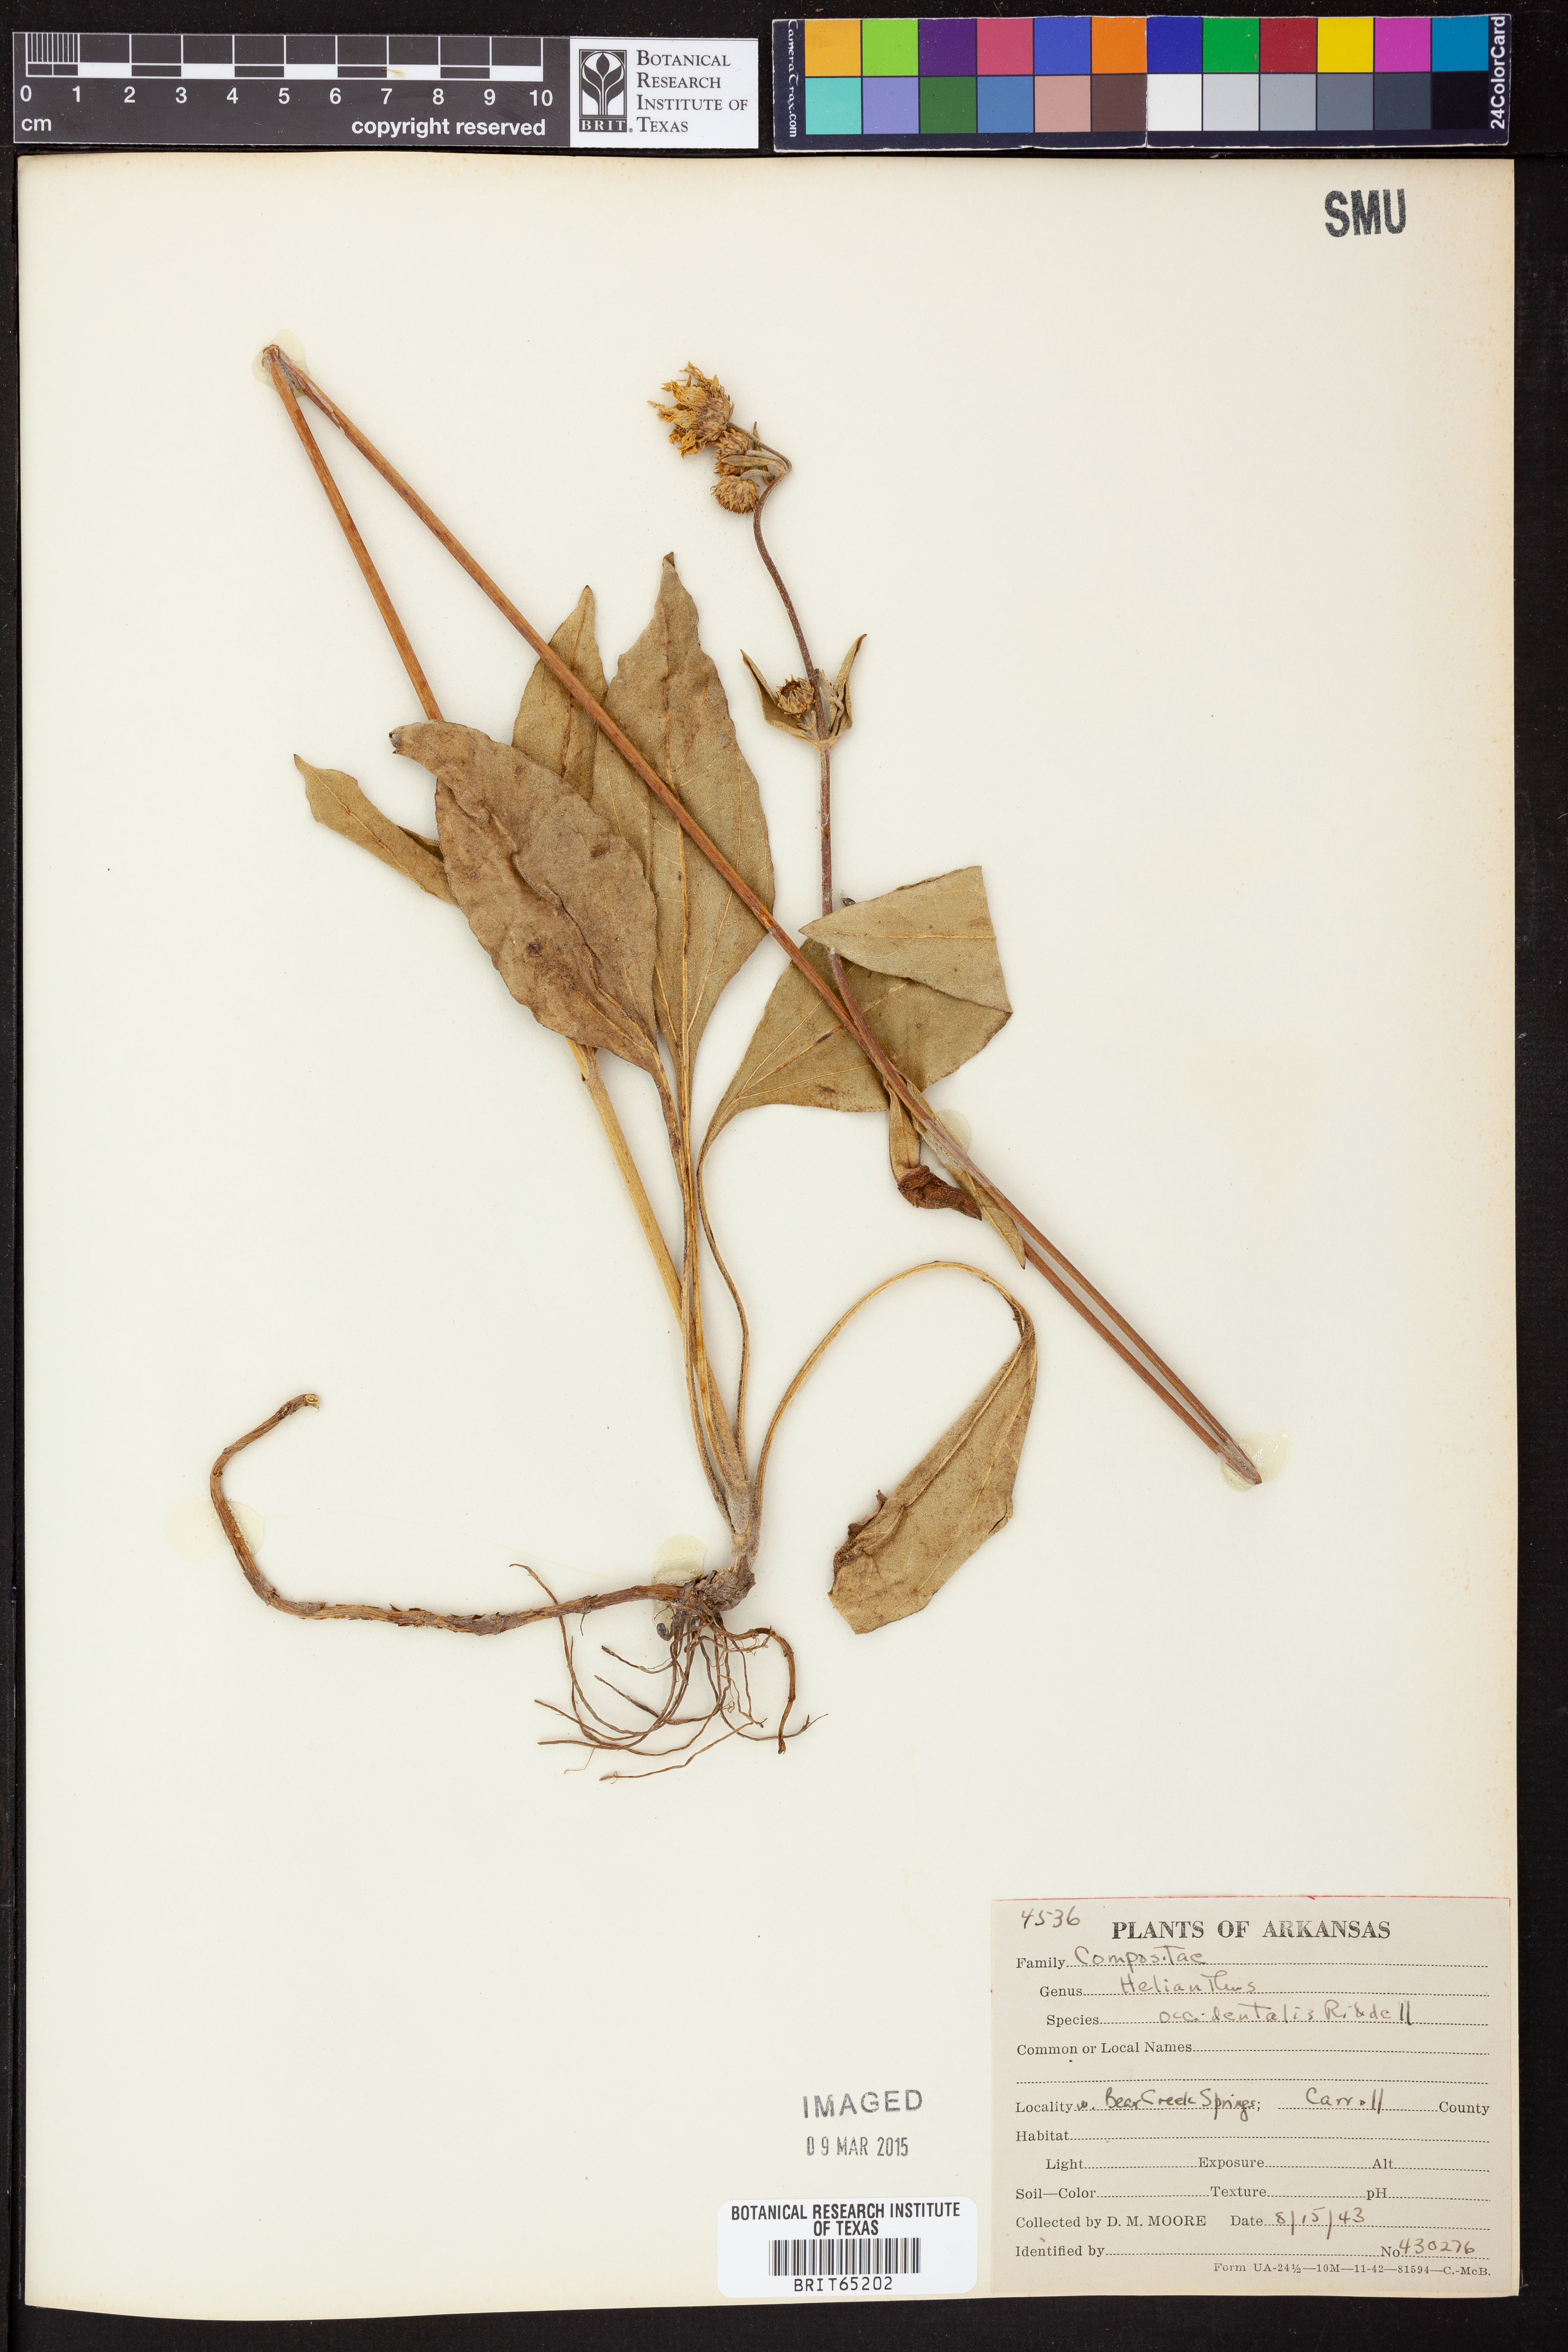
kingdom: Plantae
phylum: Tracheophyta
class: Magnoliopsida
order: Asterales
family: Asteraceae
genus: Helianthus
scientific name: Helianthus occidentalis
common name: Western sunflower
